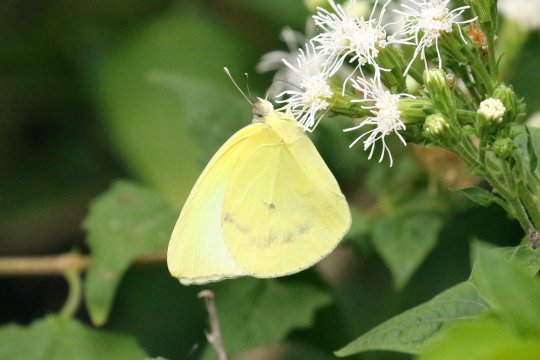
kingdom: Animalia
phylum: Arthropoda
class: Insecta
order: Lepidoptera
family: Pieridae
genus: Kricogonia
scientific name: Kricogonia lyside
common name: Lyside Sulphur
